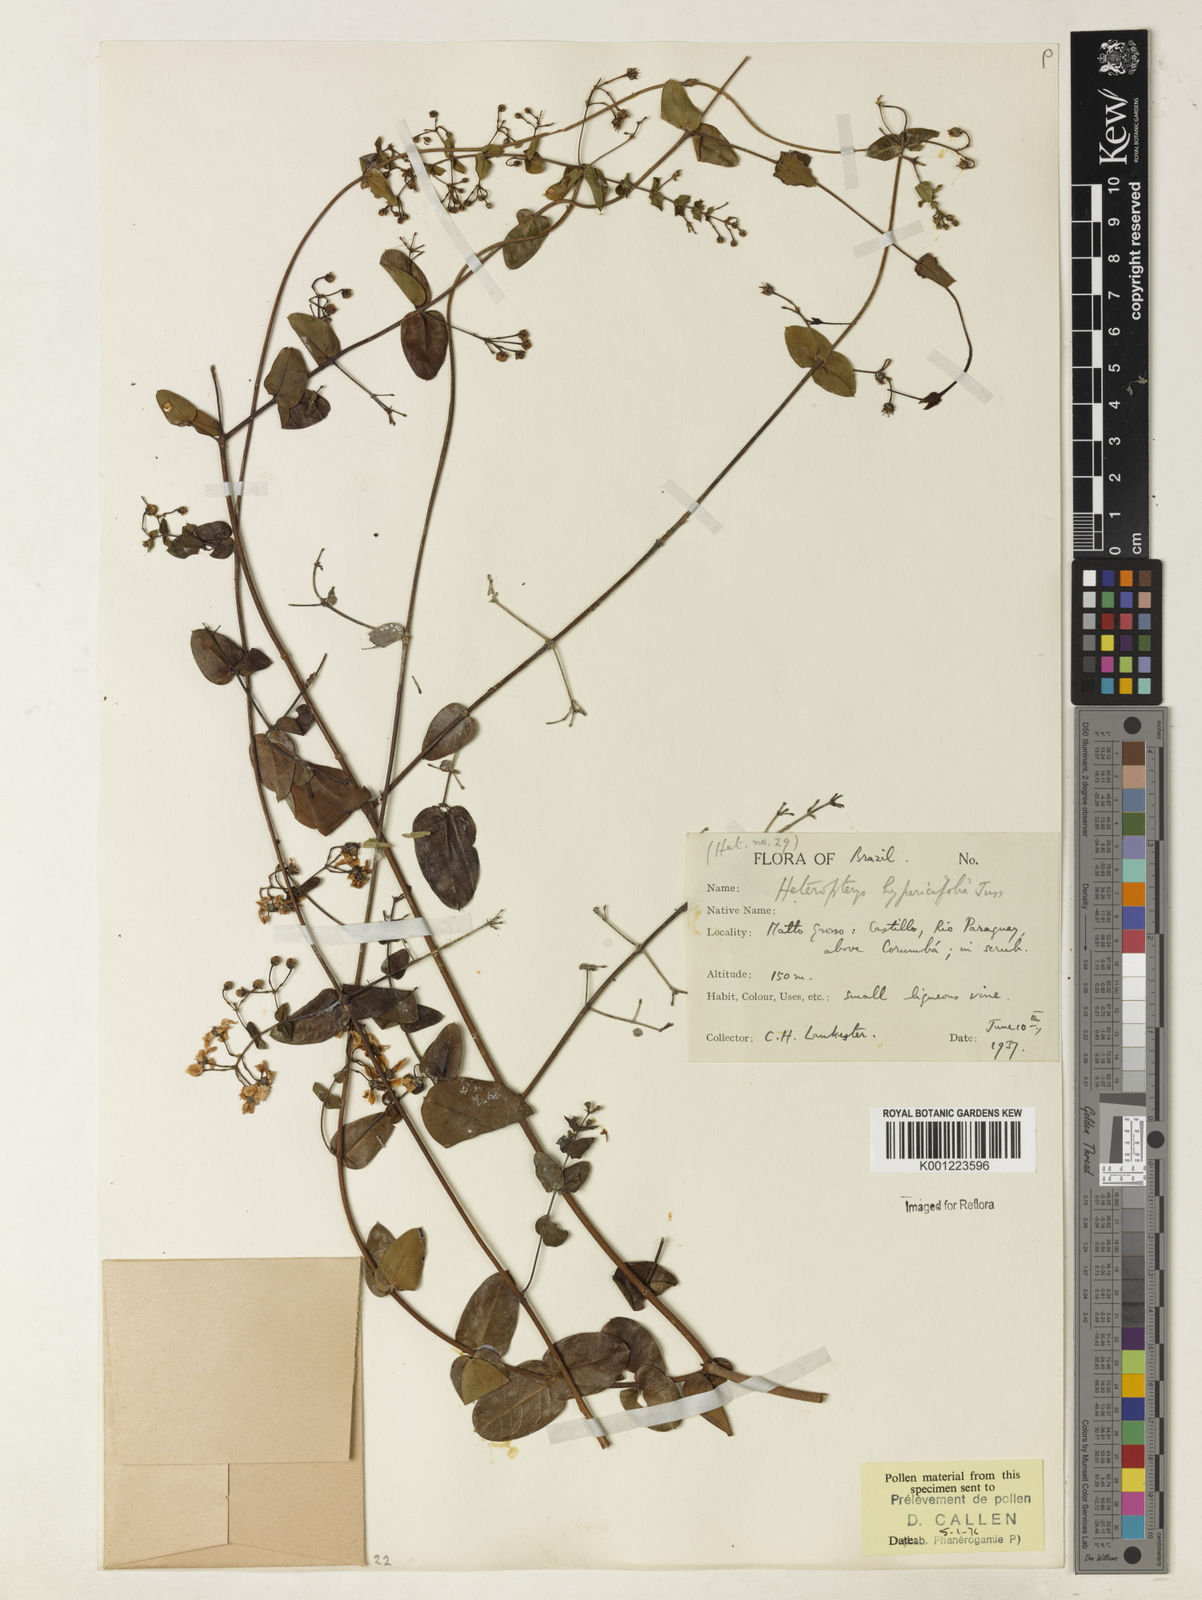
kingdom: Plantae
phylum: Tracheophyta
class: Magnoliopsida
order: Malpighiales
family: Malpighiaceae
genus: Heteropterys
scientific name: Heteropterys hypericifolia
